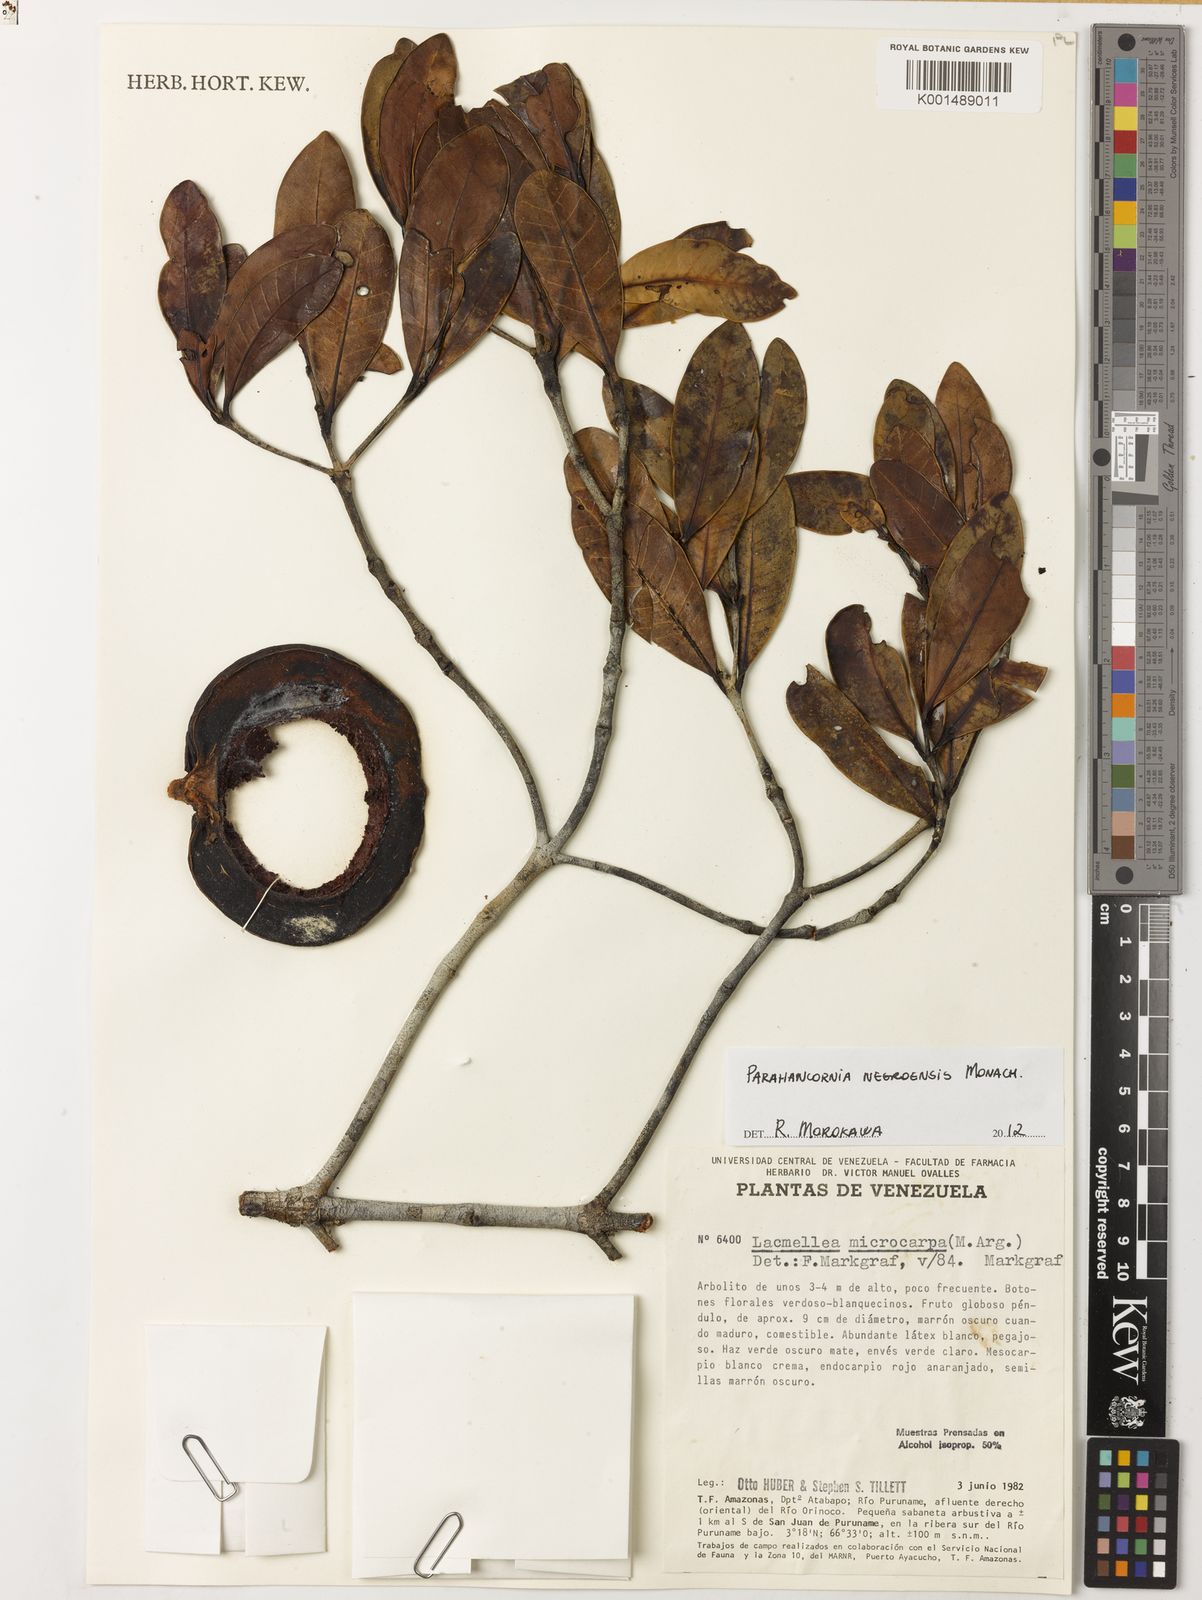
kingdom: Plantae
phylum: Tracheophyta
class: Magnoliopsida
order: Gentianales
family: Apocynaceae
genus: Parahancornia
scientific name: Parahancornia negroensis
